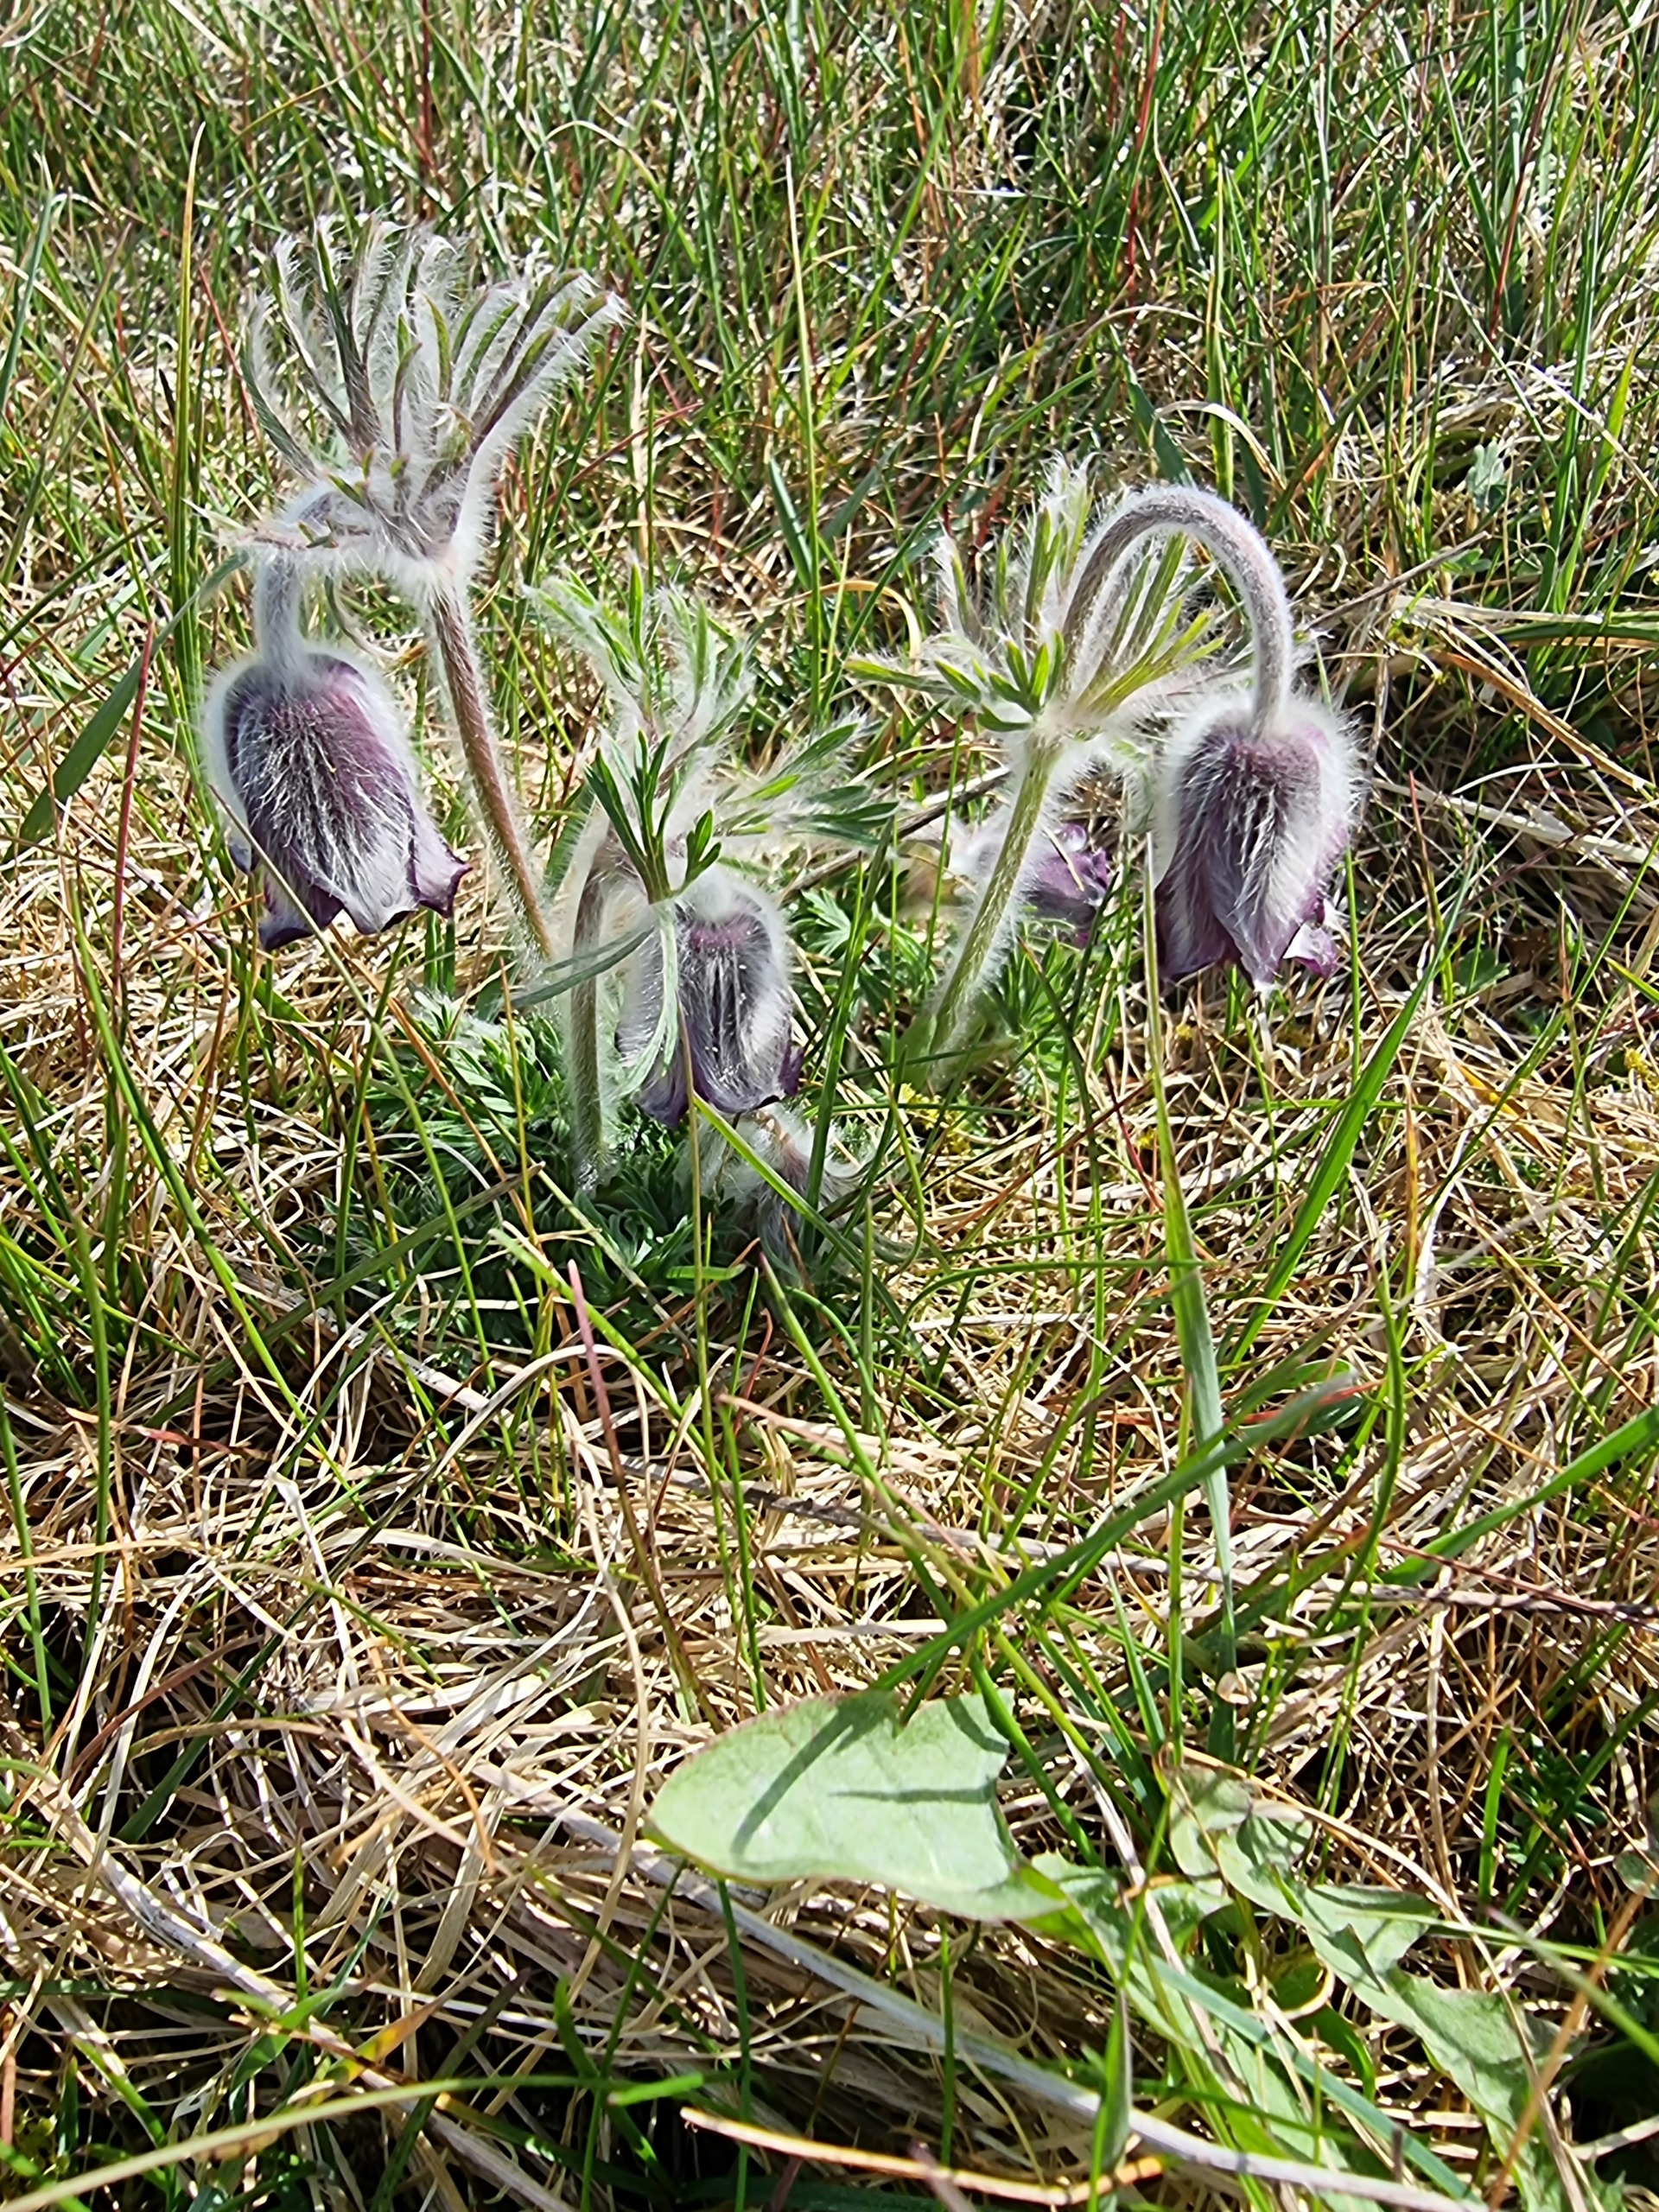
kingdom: Plantae
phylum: Tracheophyta
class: Magnoliopsida
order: Ranunculales
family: Ranunculaceae
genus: Pulsatilla
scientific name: Pulsatilla pratensis
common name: Nikkende kobjælde
